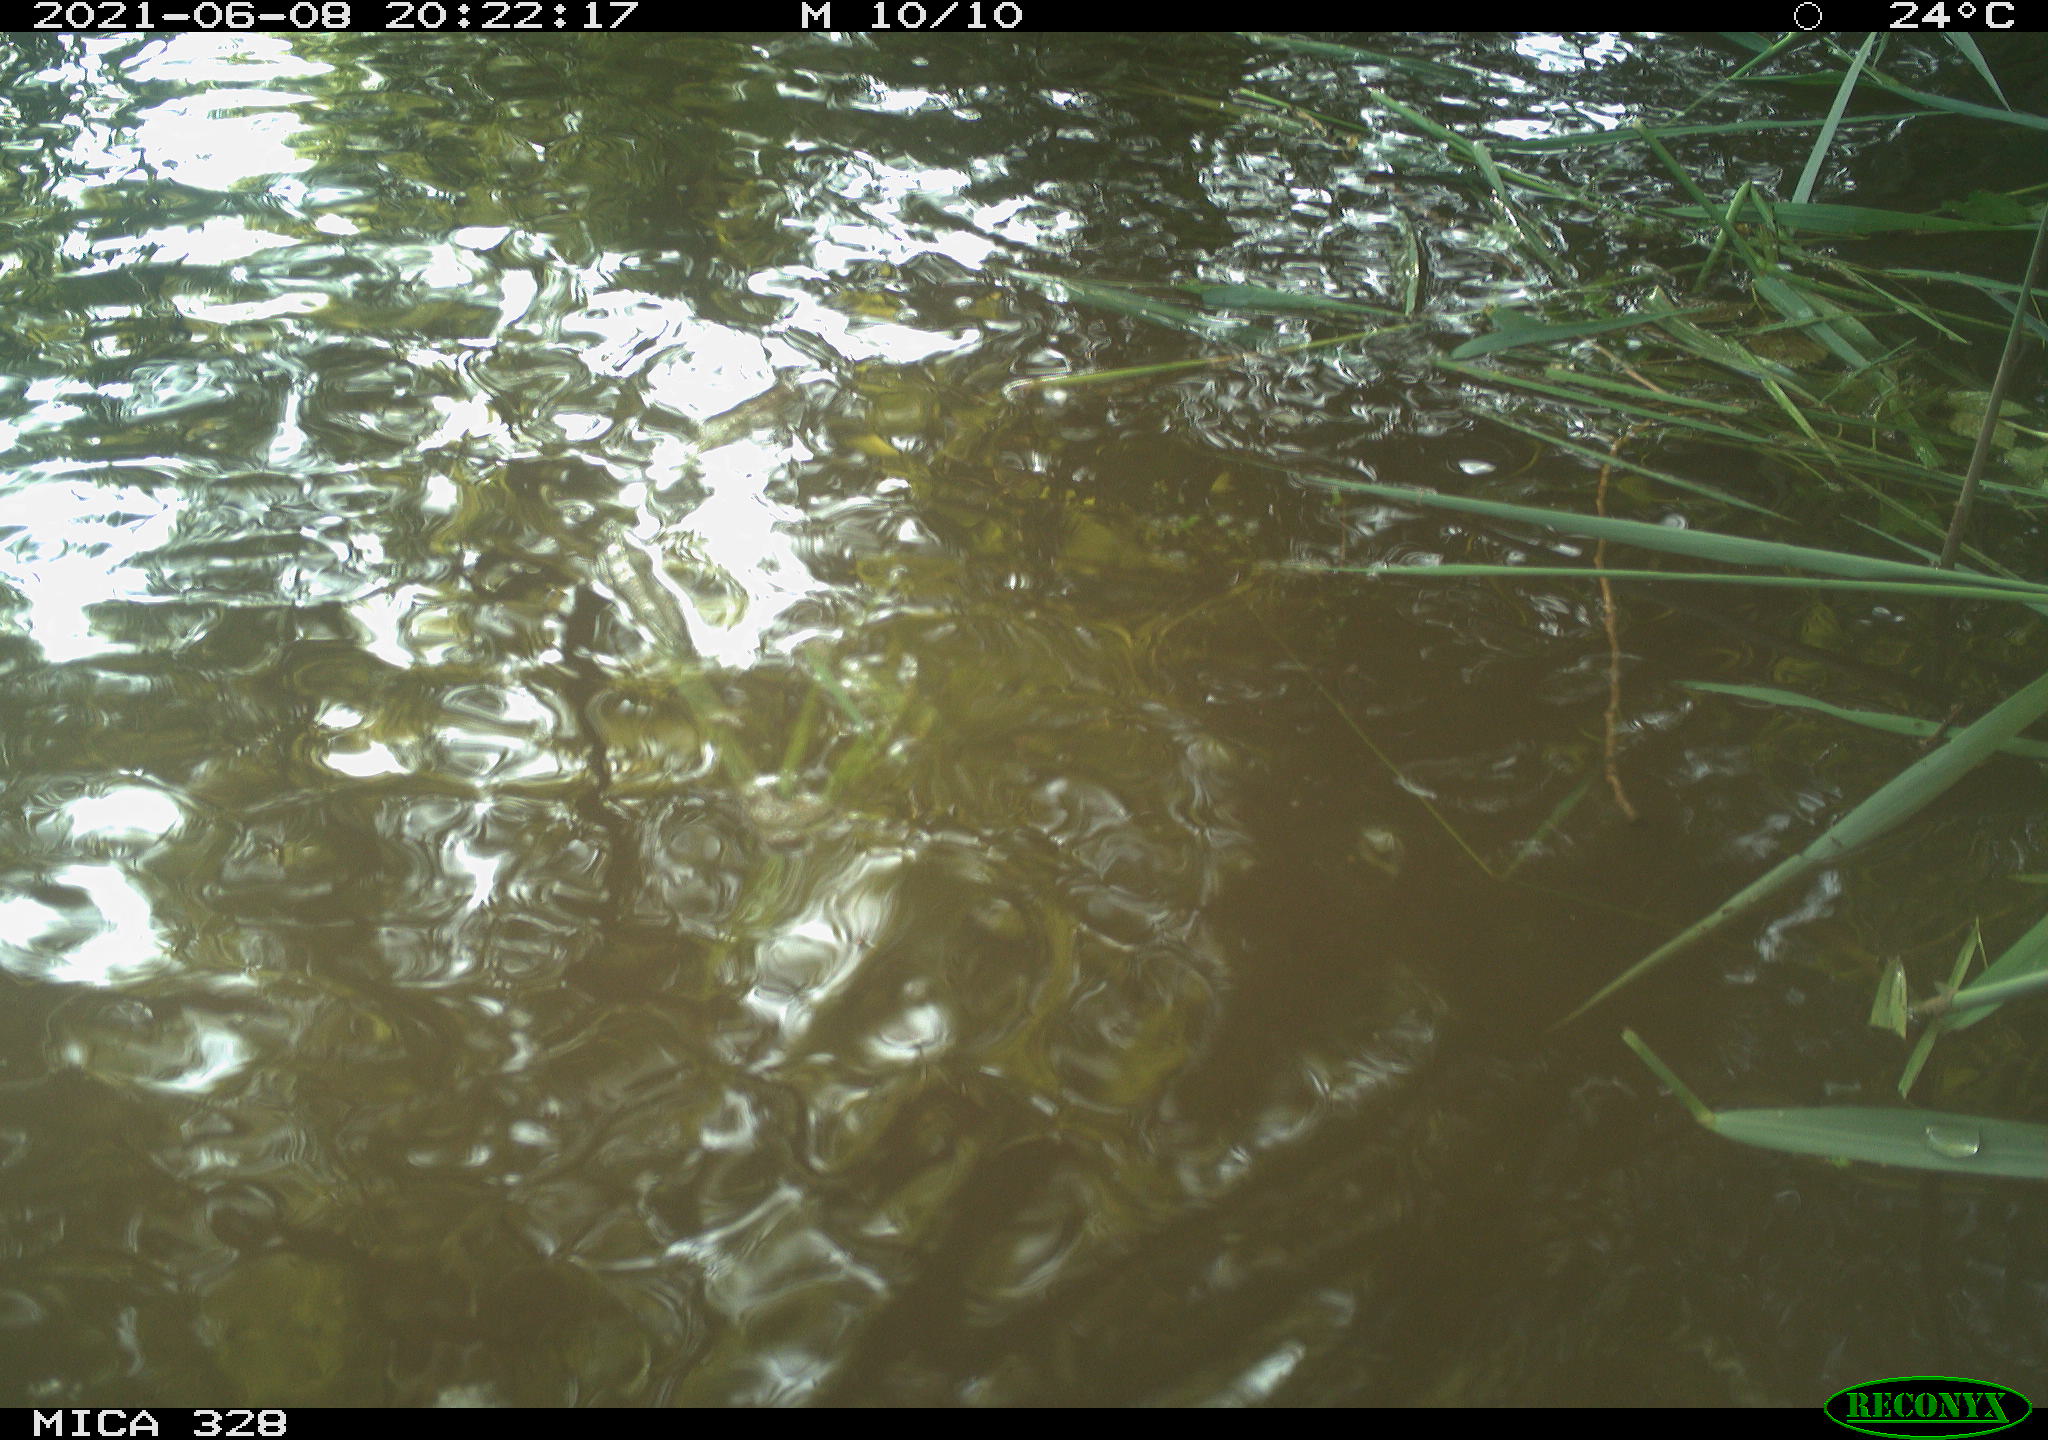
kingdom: Animalia
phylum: Chordata
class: Aves
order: Anseriformes
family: Anatidae
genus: Aix
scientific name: Aix galericulata
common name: Mandarin duck
